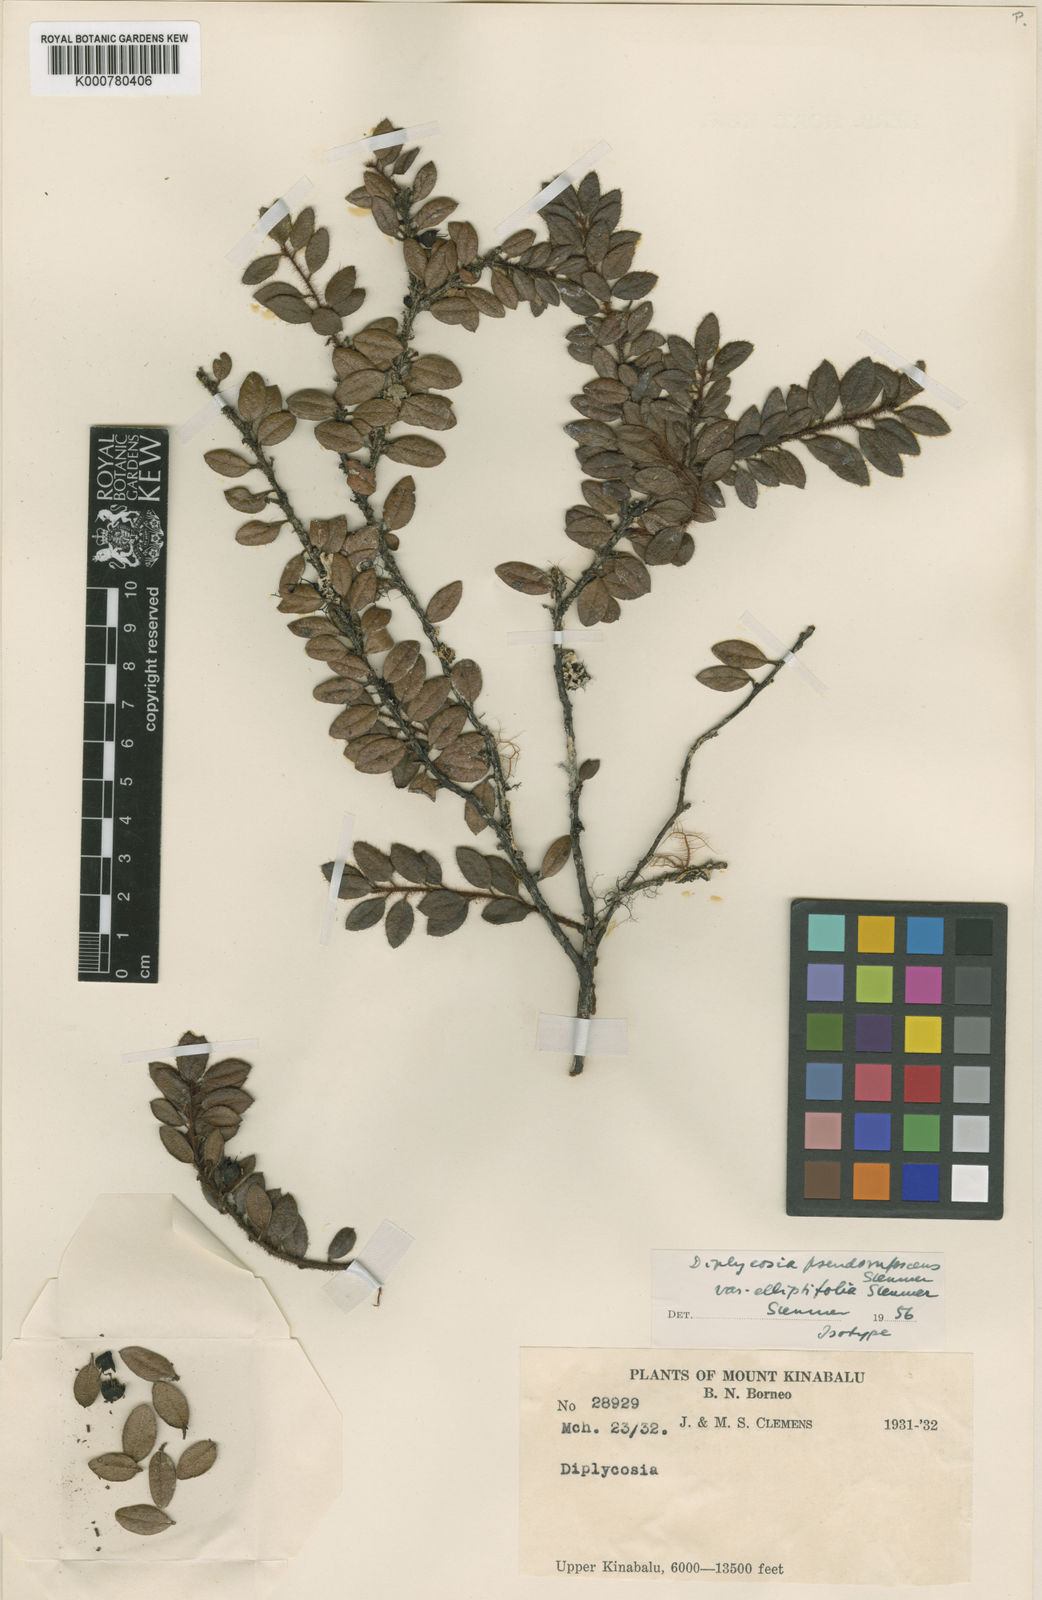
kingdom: Plantae
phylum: Tracheophyta
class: Magnoliopsida
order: Ericales
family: Ericaceae
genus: Gaultheria
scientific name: Gaultheria pseudorufescens
